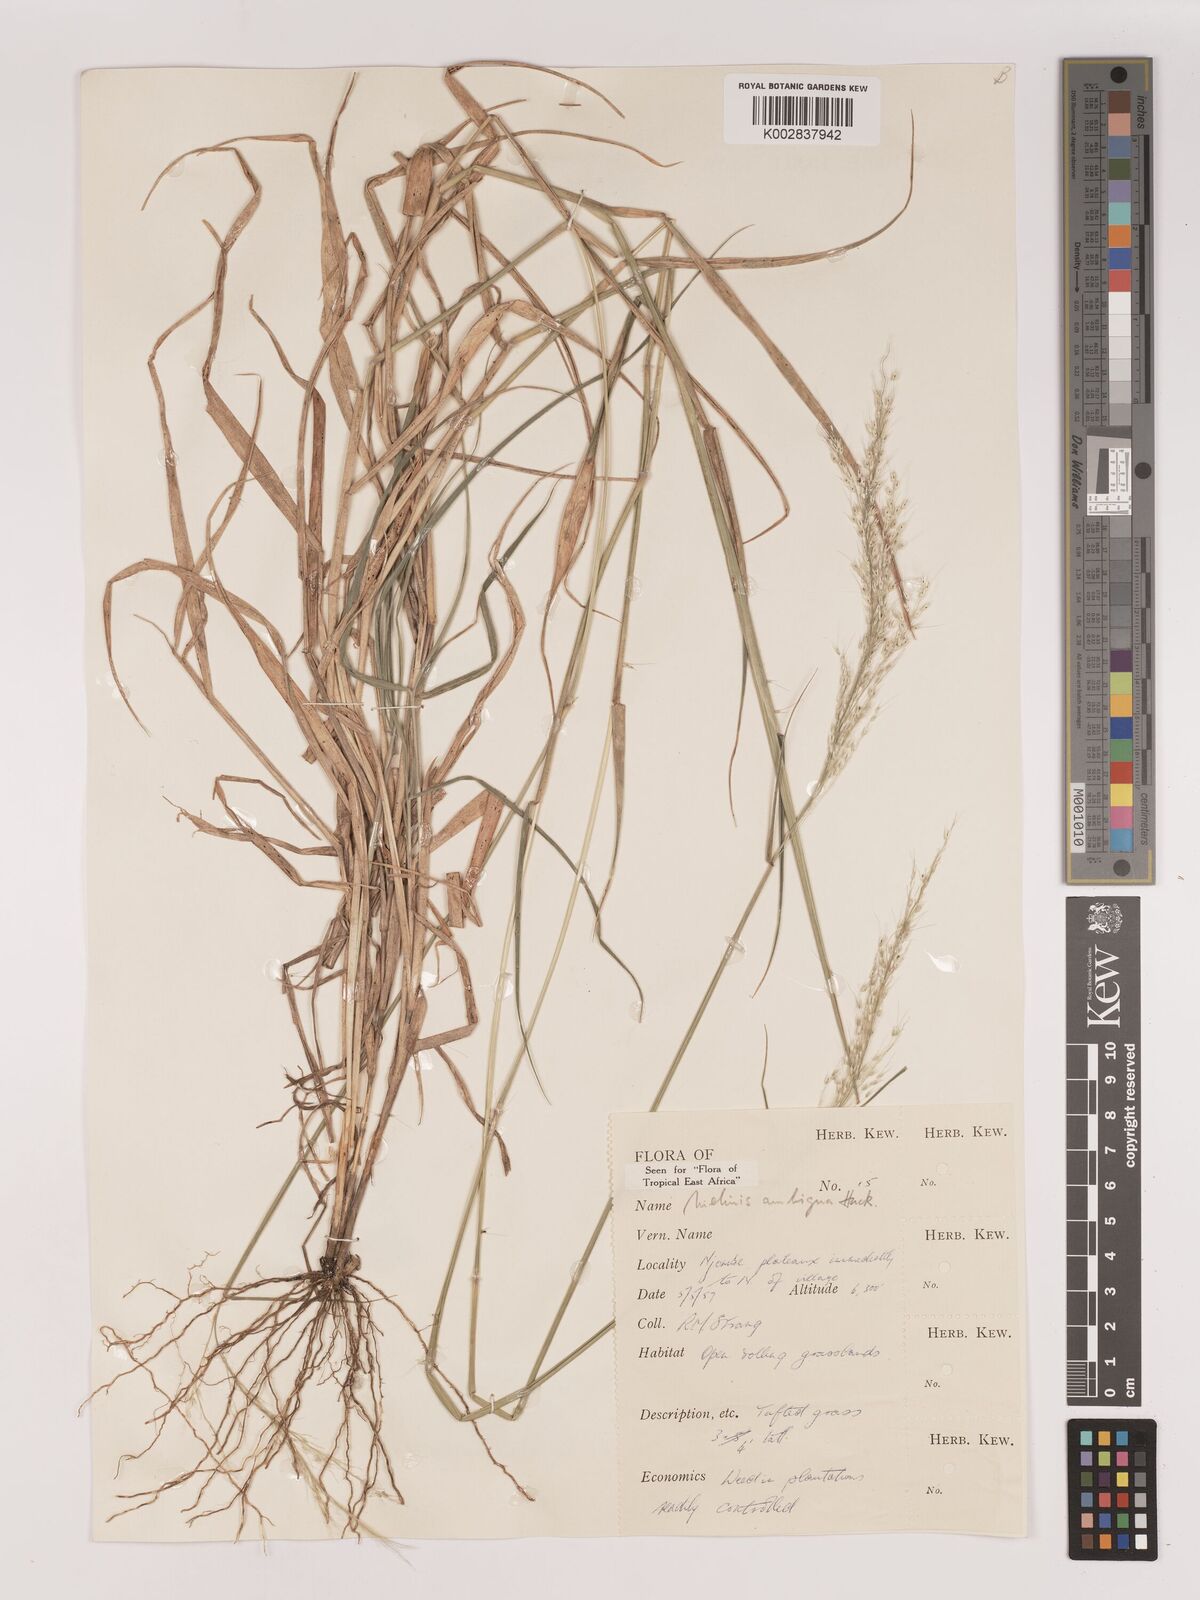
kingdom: Plantae
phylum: Tracheophyta
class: Liliopsida
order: Poales
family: Poaceae
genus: Melinis
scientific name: Melinis ambigua
